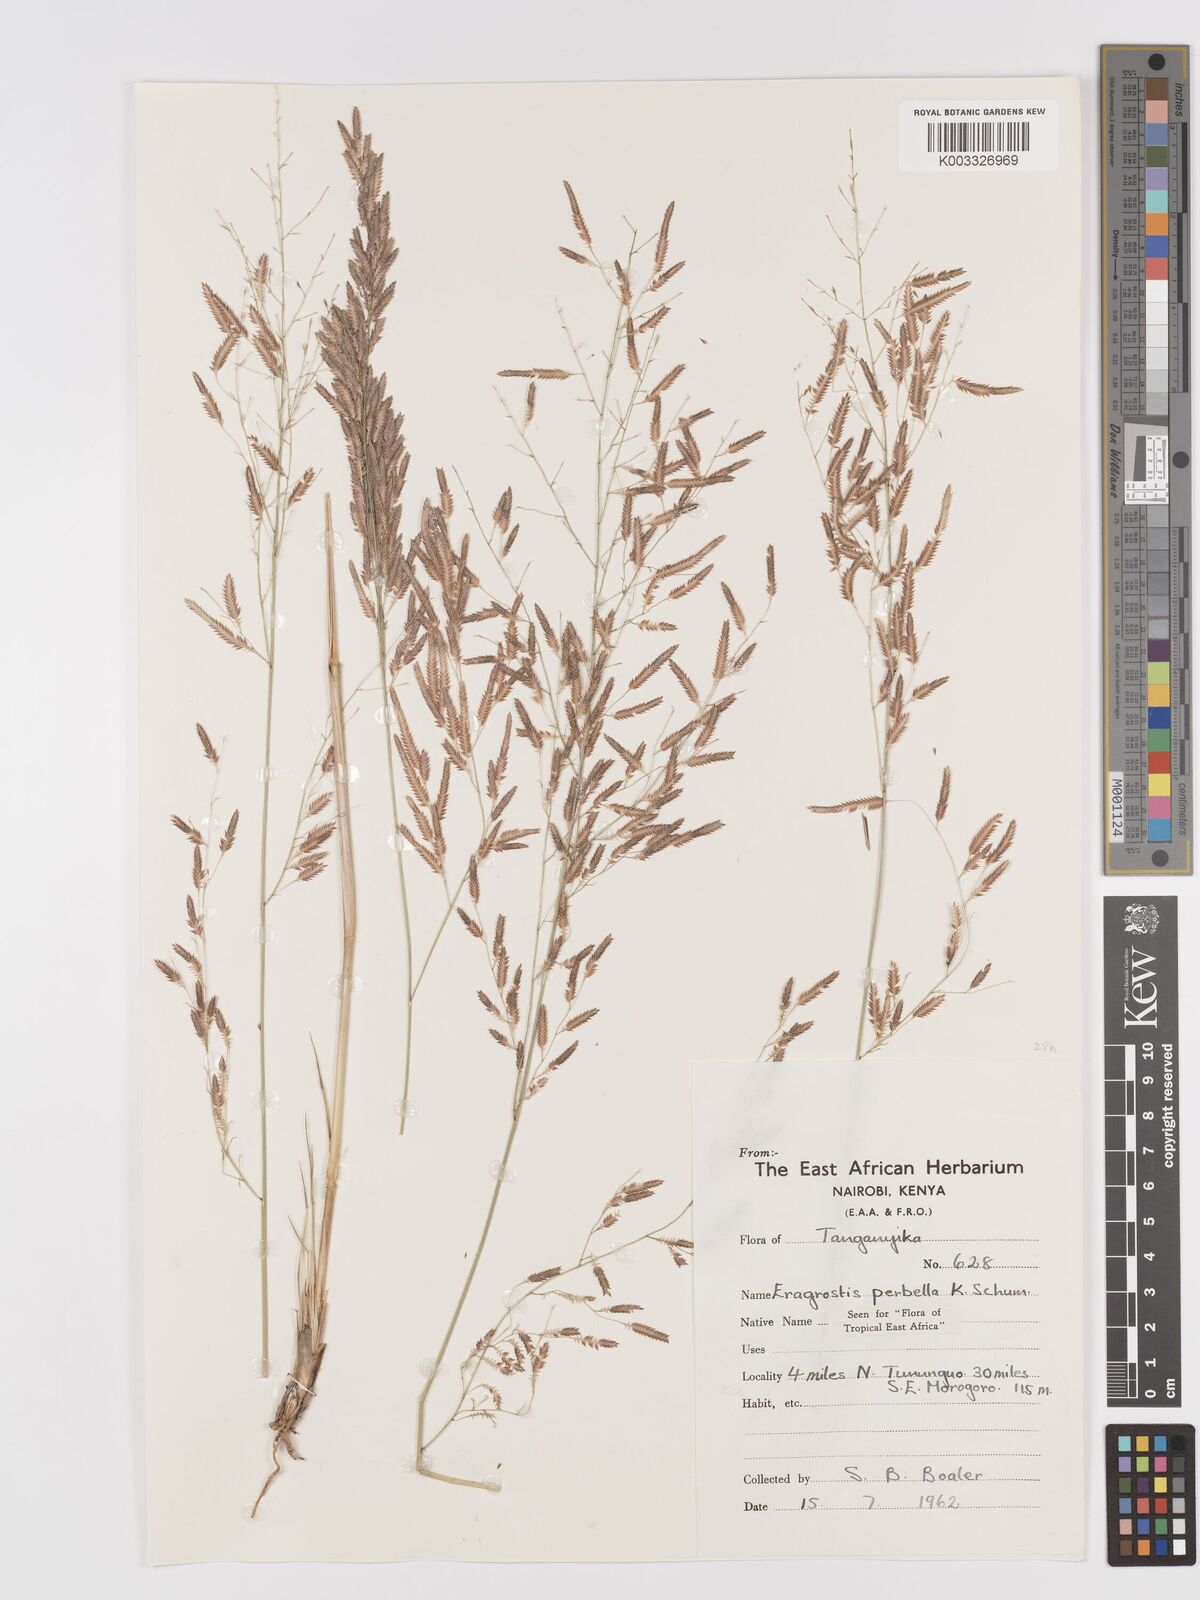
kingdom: Plantae
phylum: Tracheophyta
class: Liliopsida
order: Poales
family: Poaceae
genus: Eragrostis
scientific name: Eragrostis perbella
